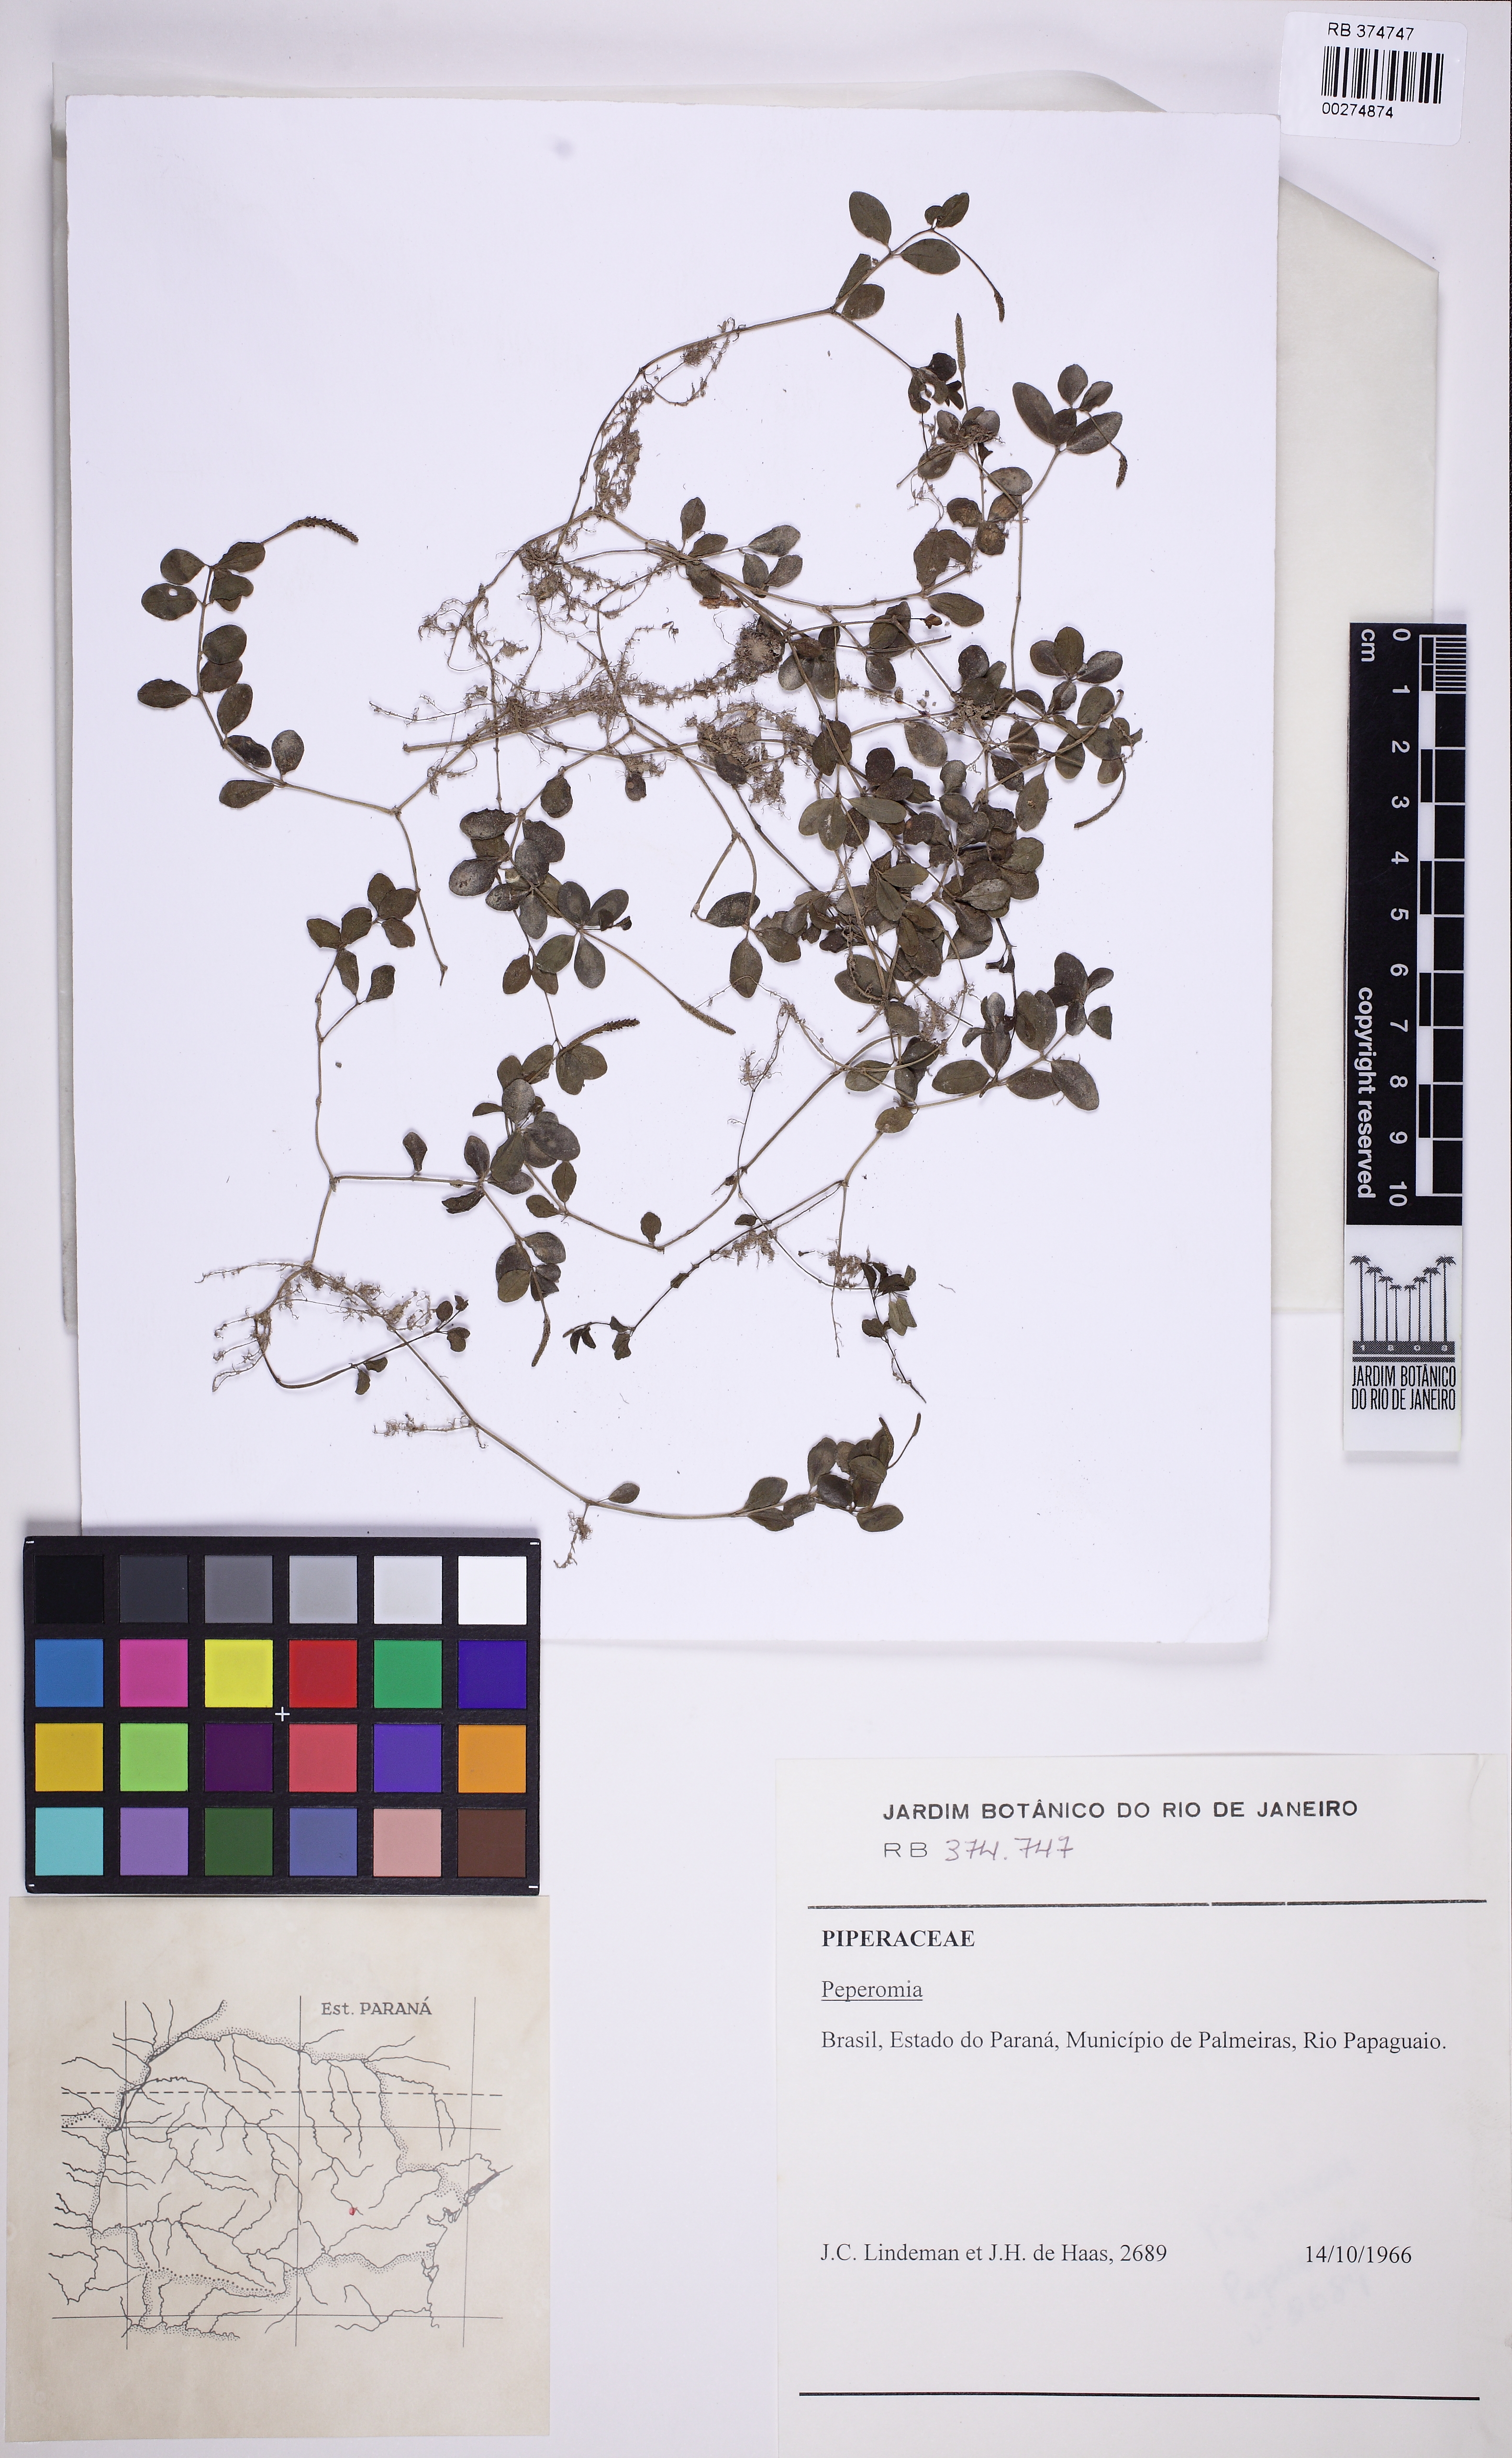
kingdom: Plantae
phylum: Tracheophyta
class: Magnoliopsida
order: Piperales
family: Piperaceae
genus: Peperomia
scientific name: Peperomia catharinae
